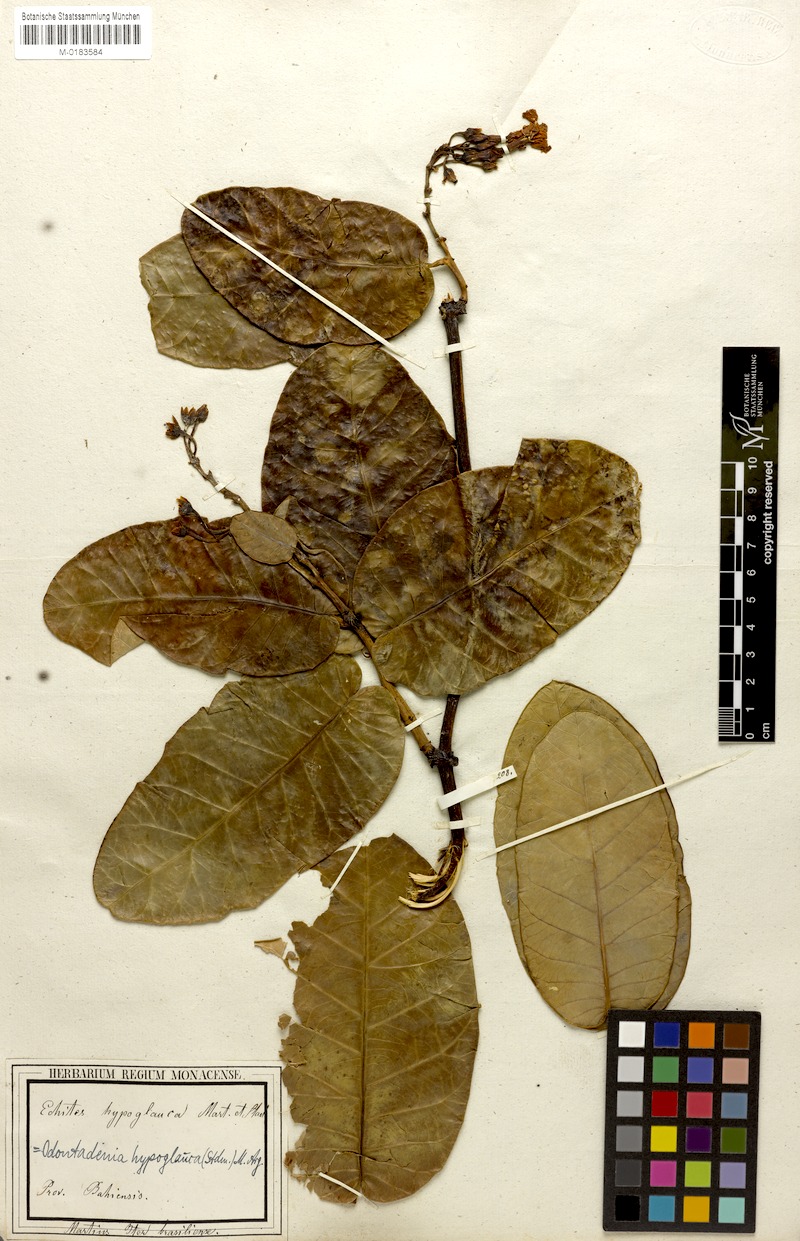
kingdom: Plantae
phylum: Tracheophyta
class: Magnoliopsida
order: Gentianales
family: Apocynaceae
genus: Odontadenia
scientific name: Odontadenia hypoglauca
